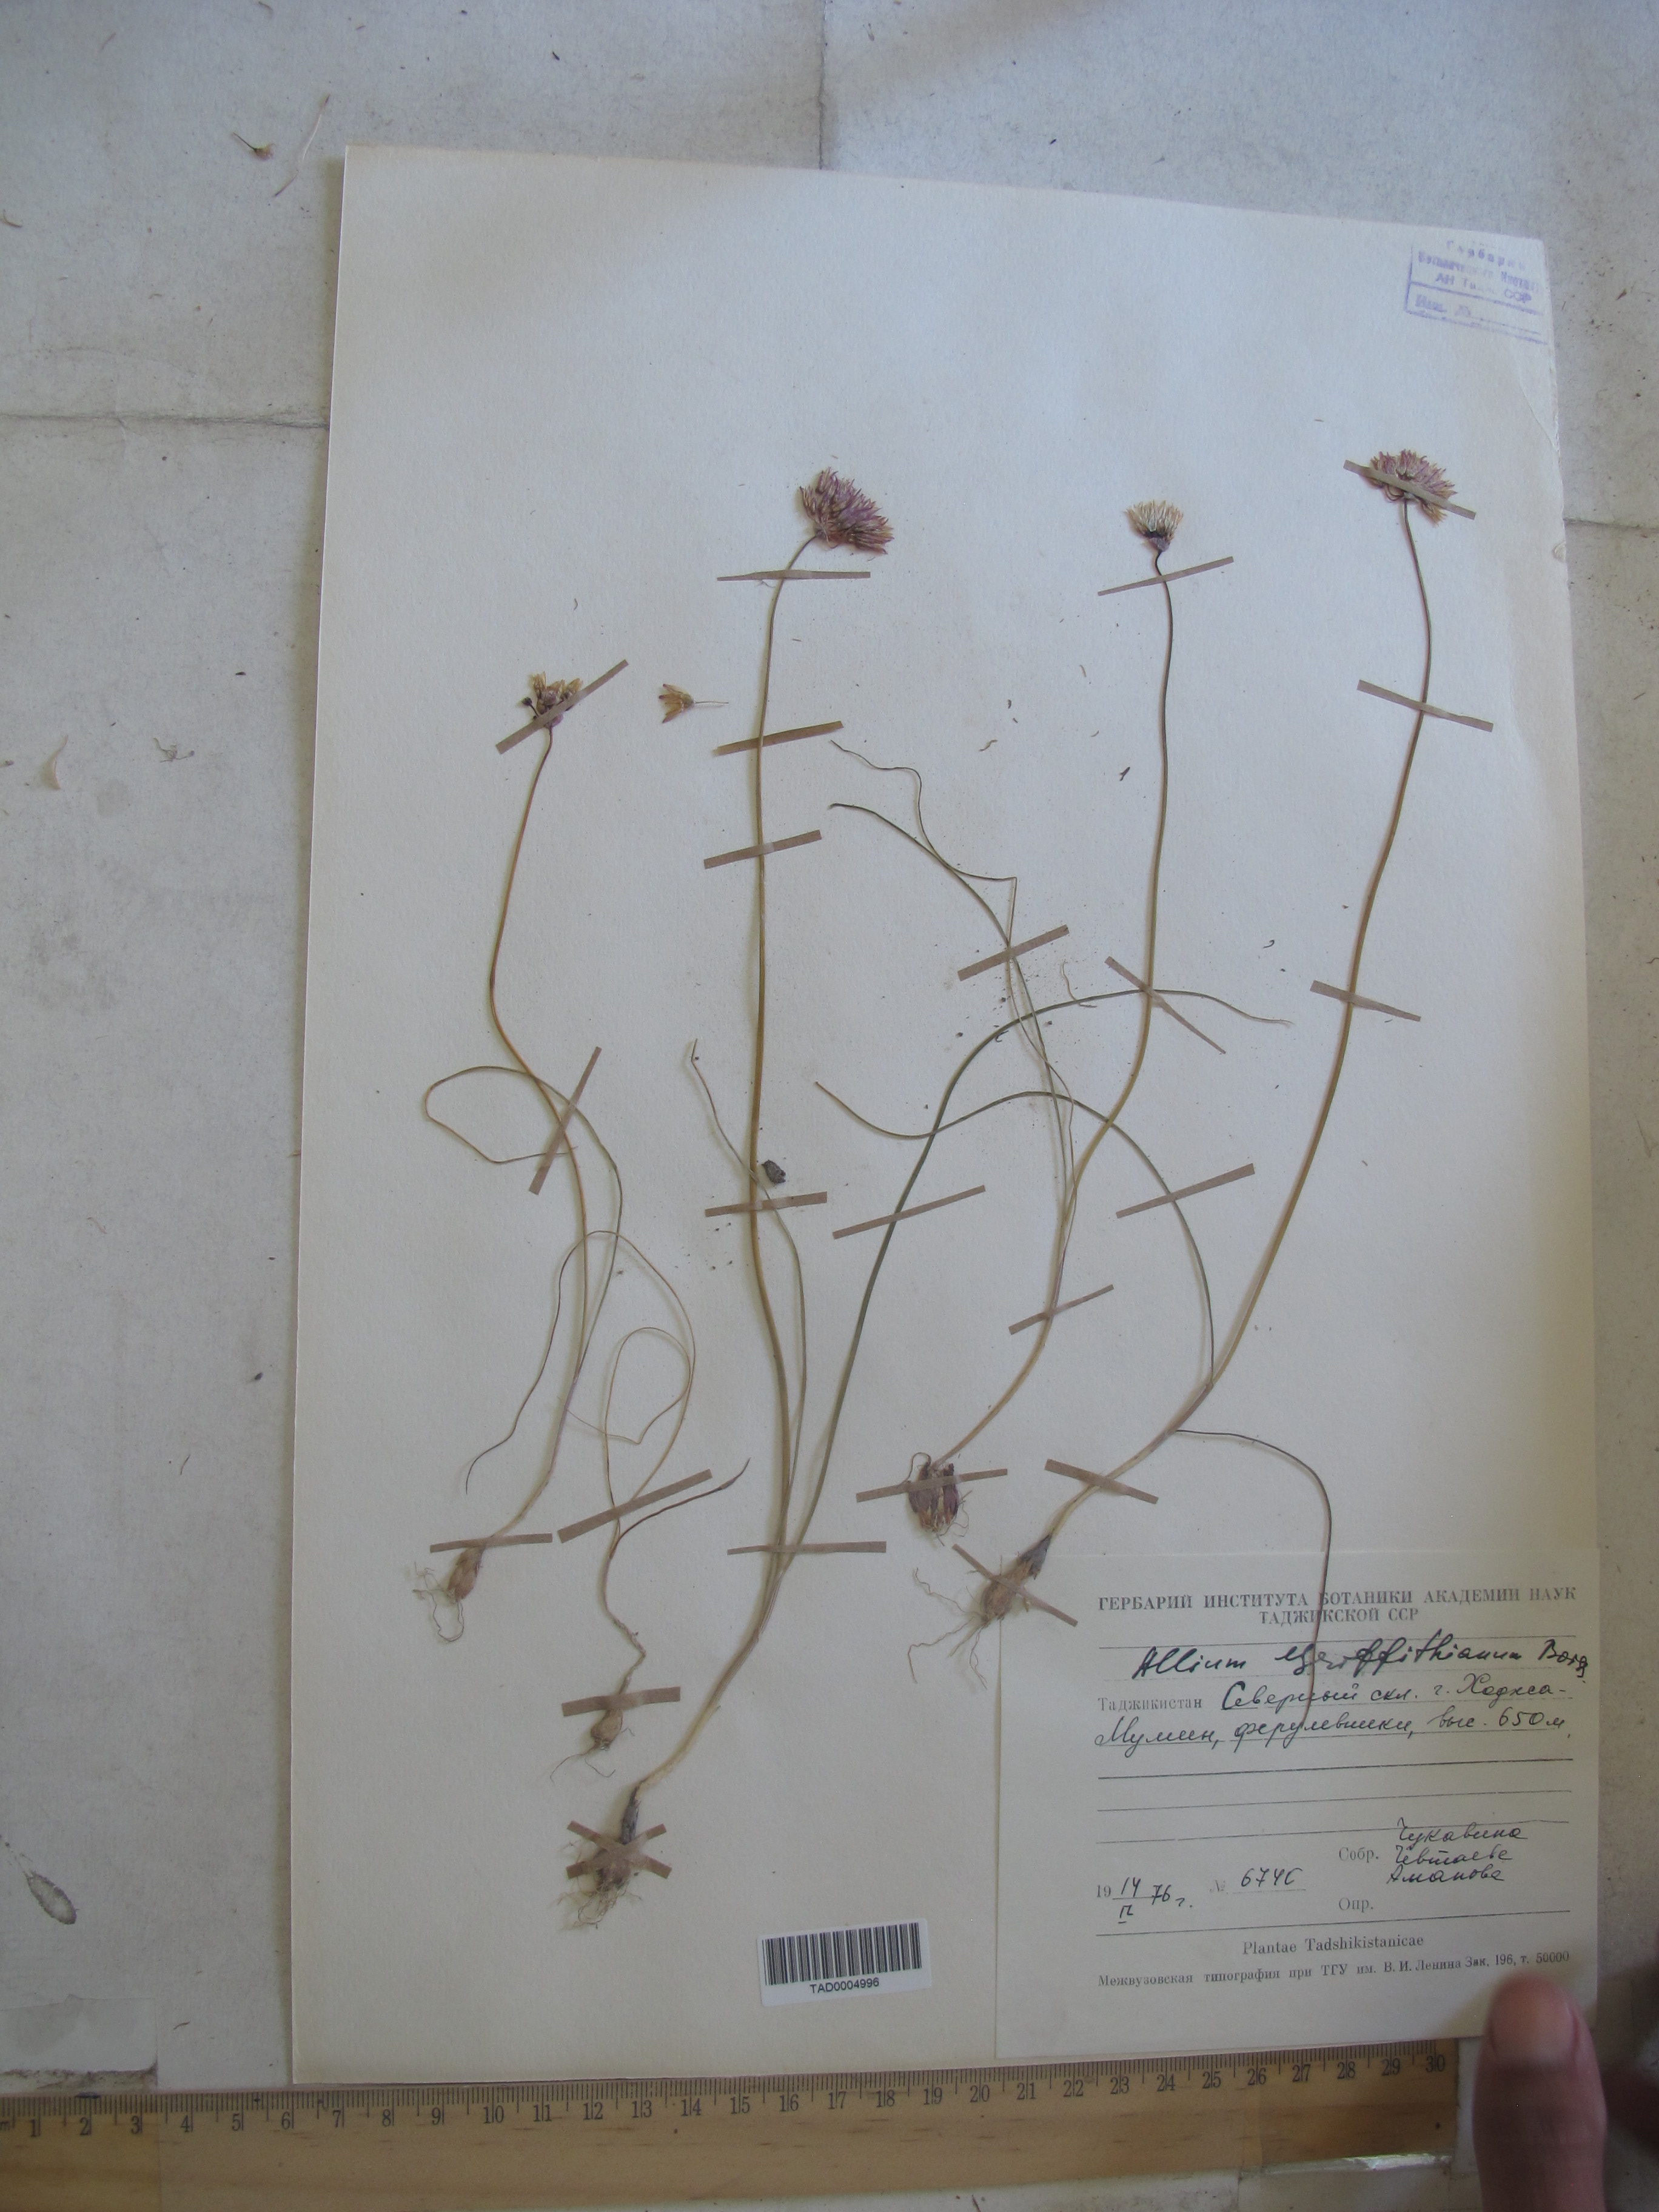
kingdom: Plantae
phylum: Tracheophyta
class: Liliopsida
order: Asparagales
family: Amaryllidaceae
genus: Allium
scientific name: Allium griffithianum
